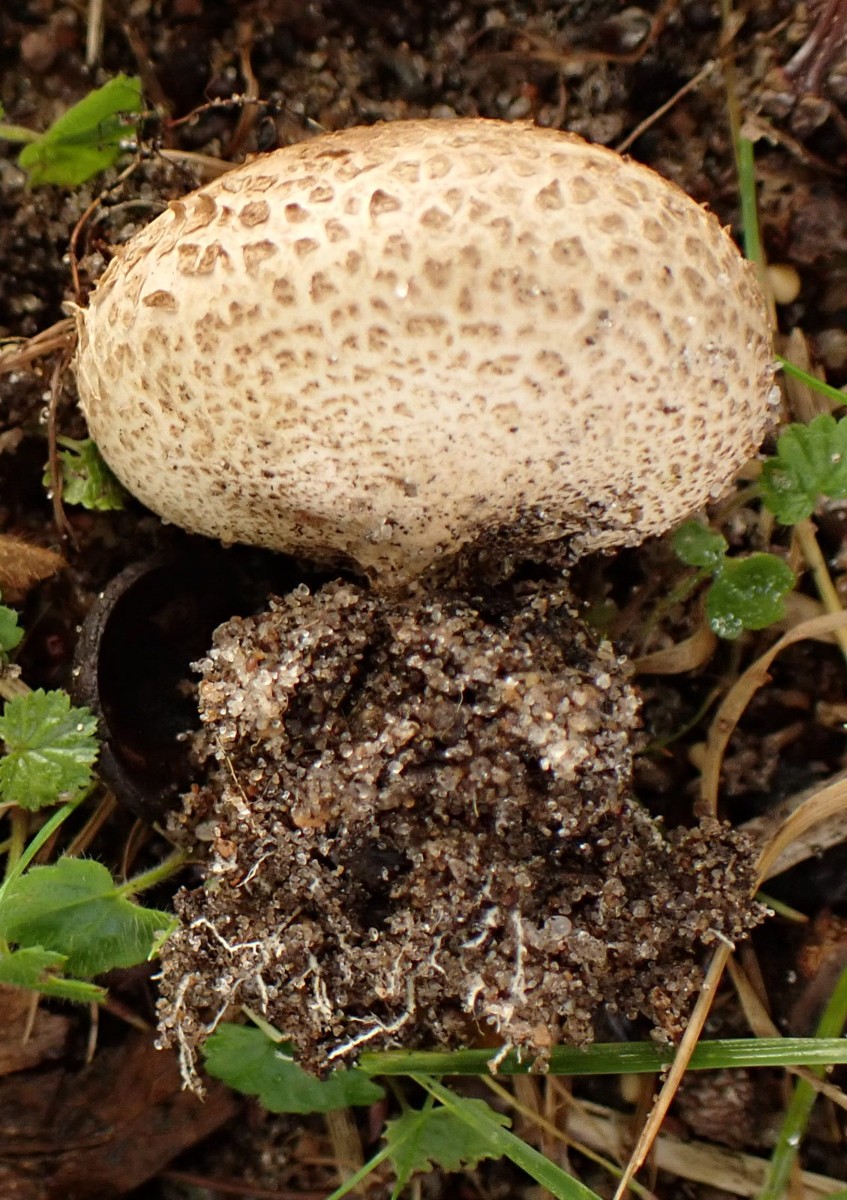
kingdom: Fungi
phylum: Basidiomycota
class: Agaricomycetes
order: Boletales
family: Sclerodermataceae
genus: Scleroderma
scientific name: Scleroderma verrucosum
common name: stilket bruskbold
